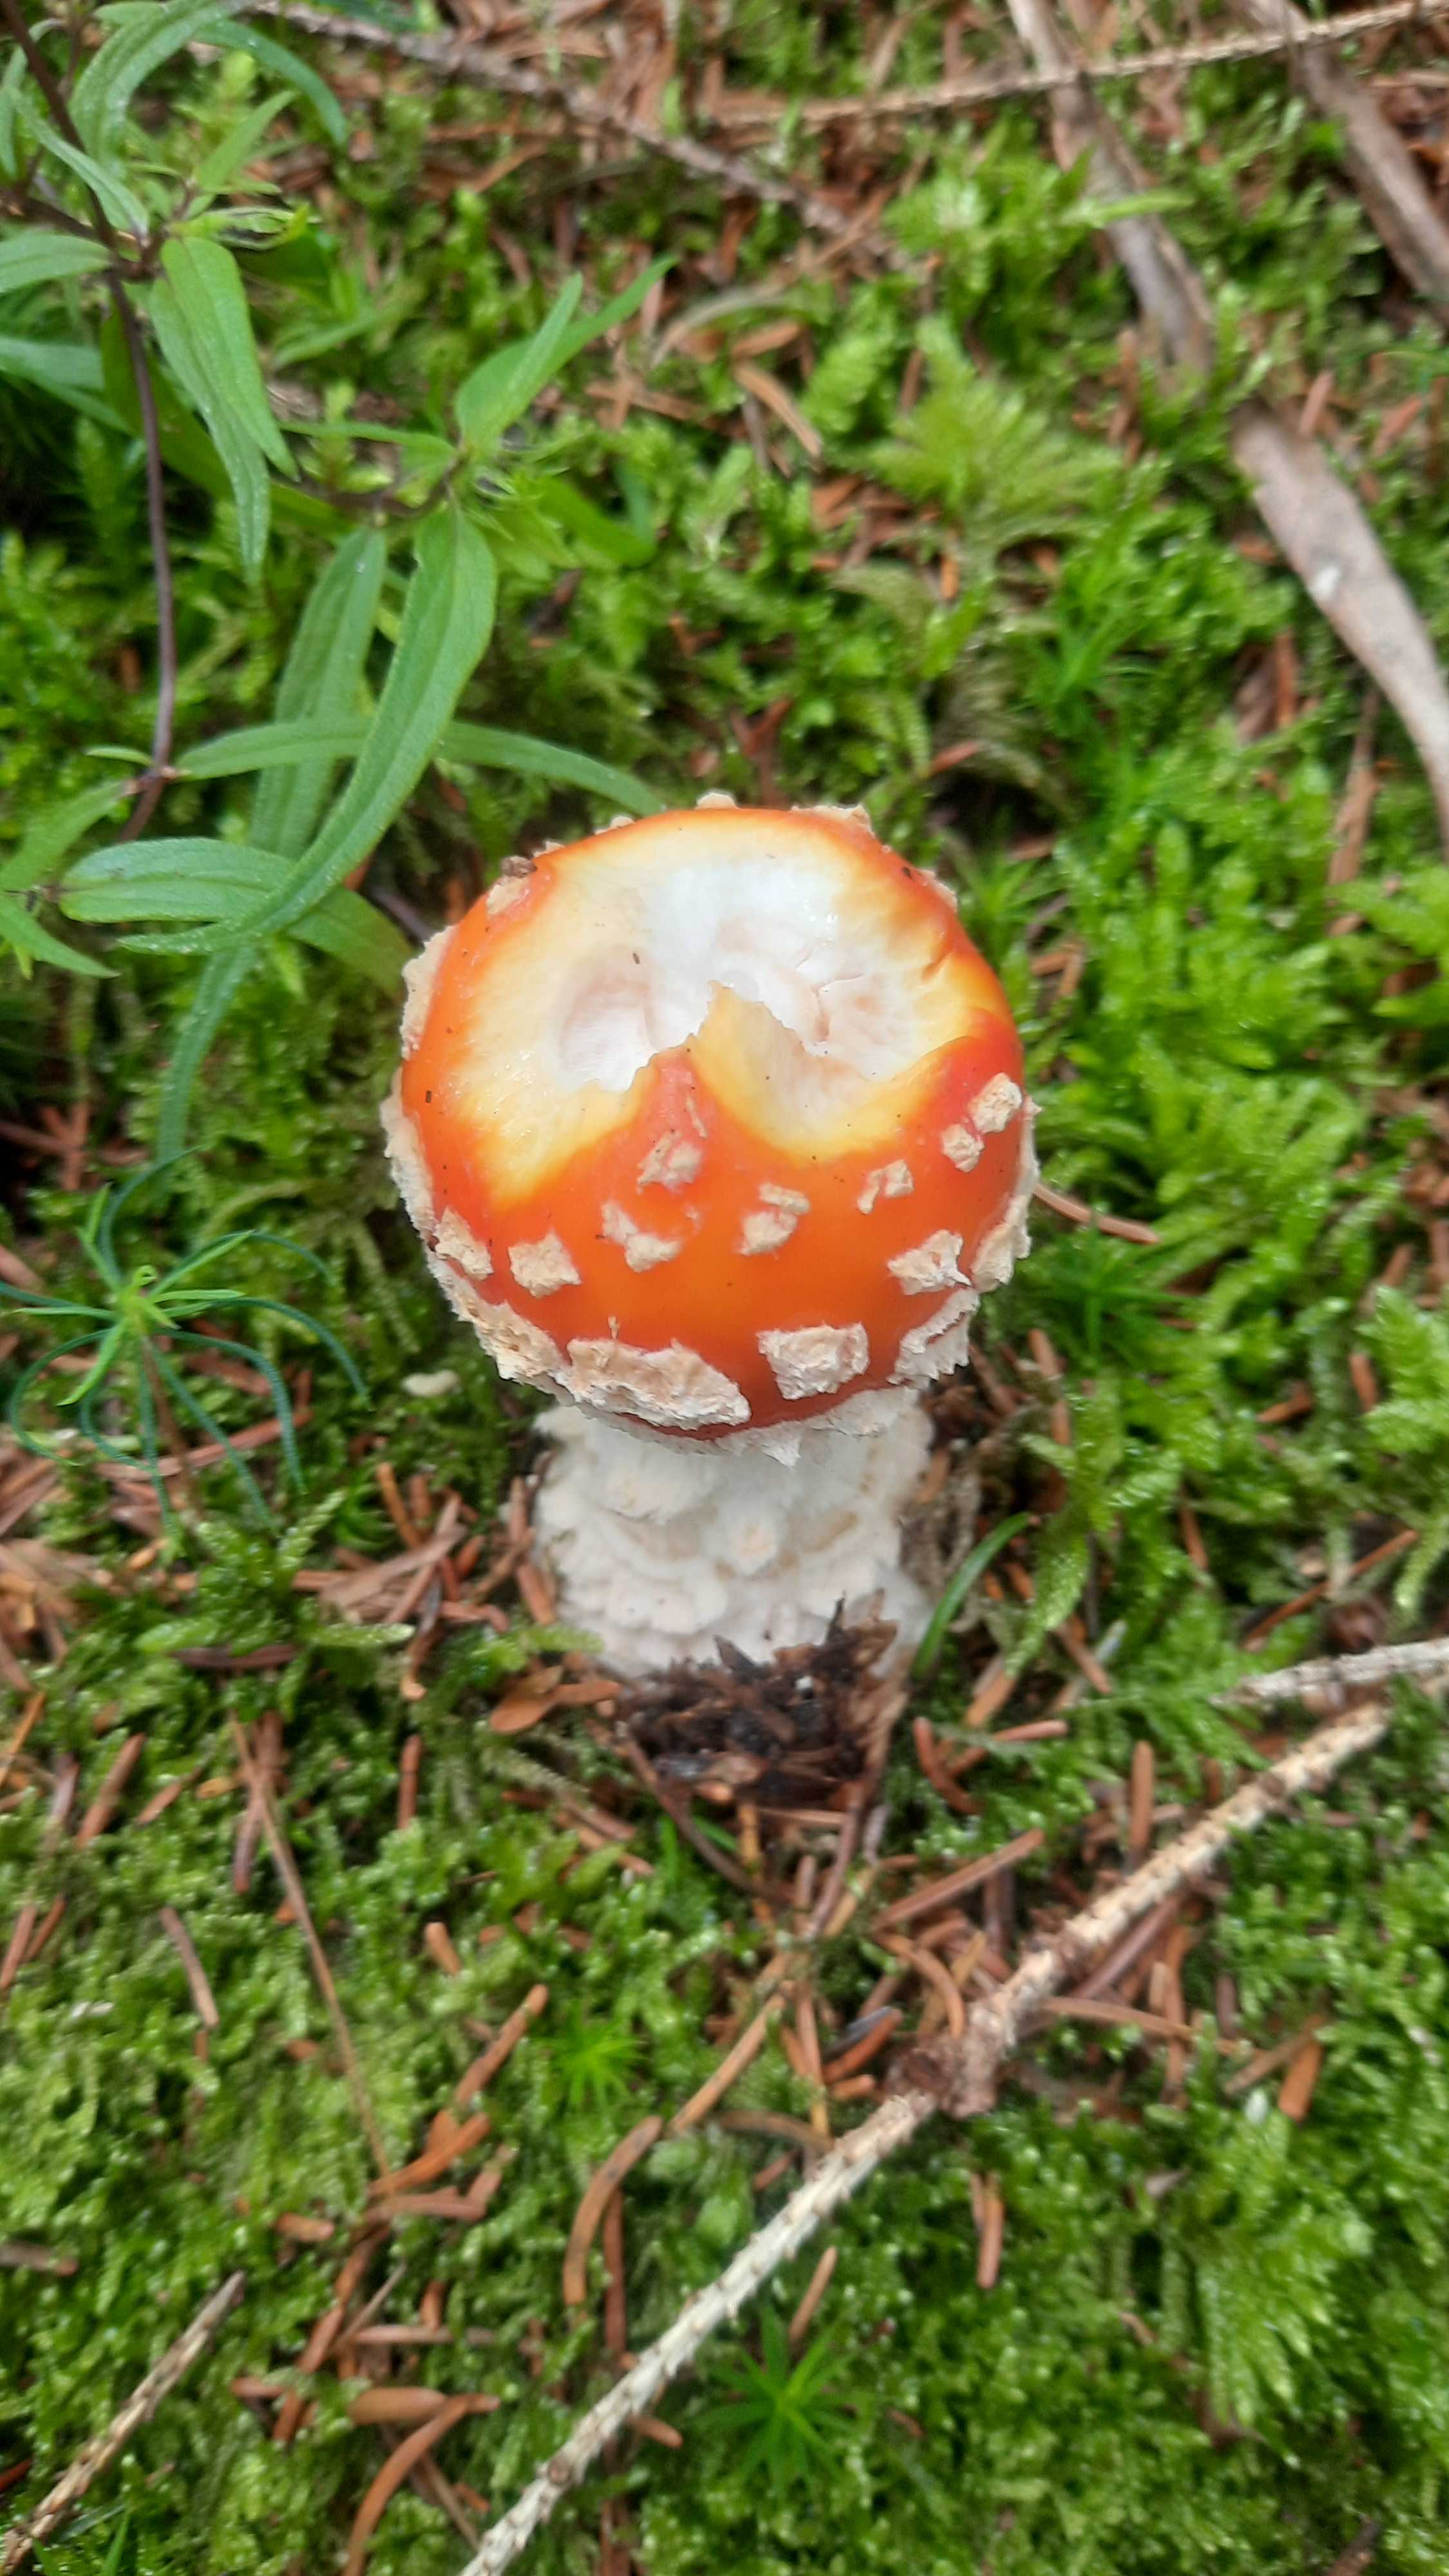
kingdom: Fungi
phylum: Basidiomycota
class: Agaricomycetes
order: Agaricales
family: Amanitaceae
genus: Amanita
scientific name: Amanita muscaria
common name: rød fluesvamp
